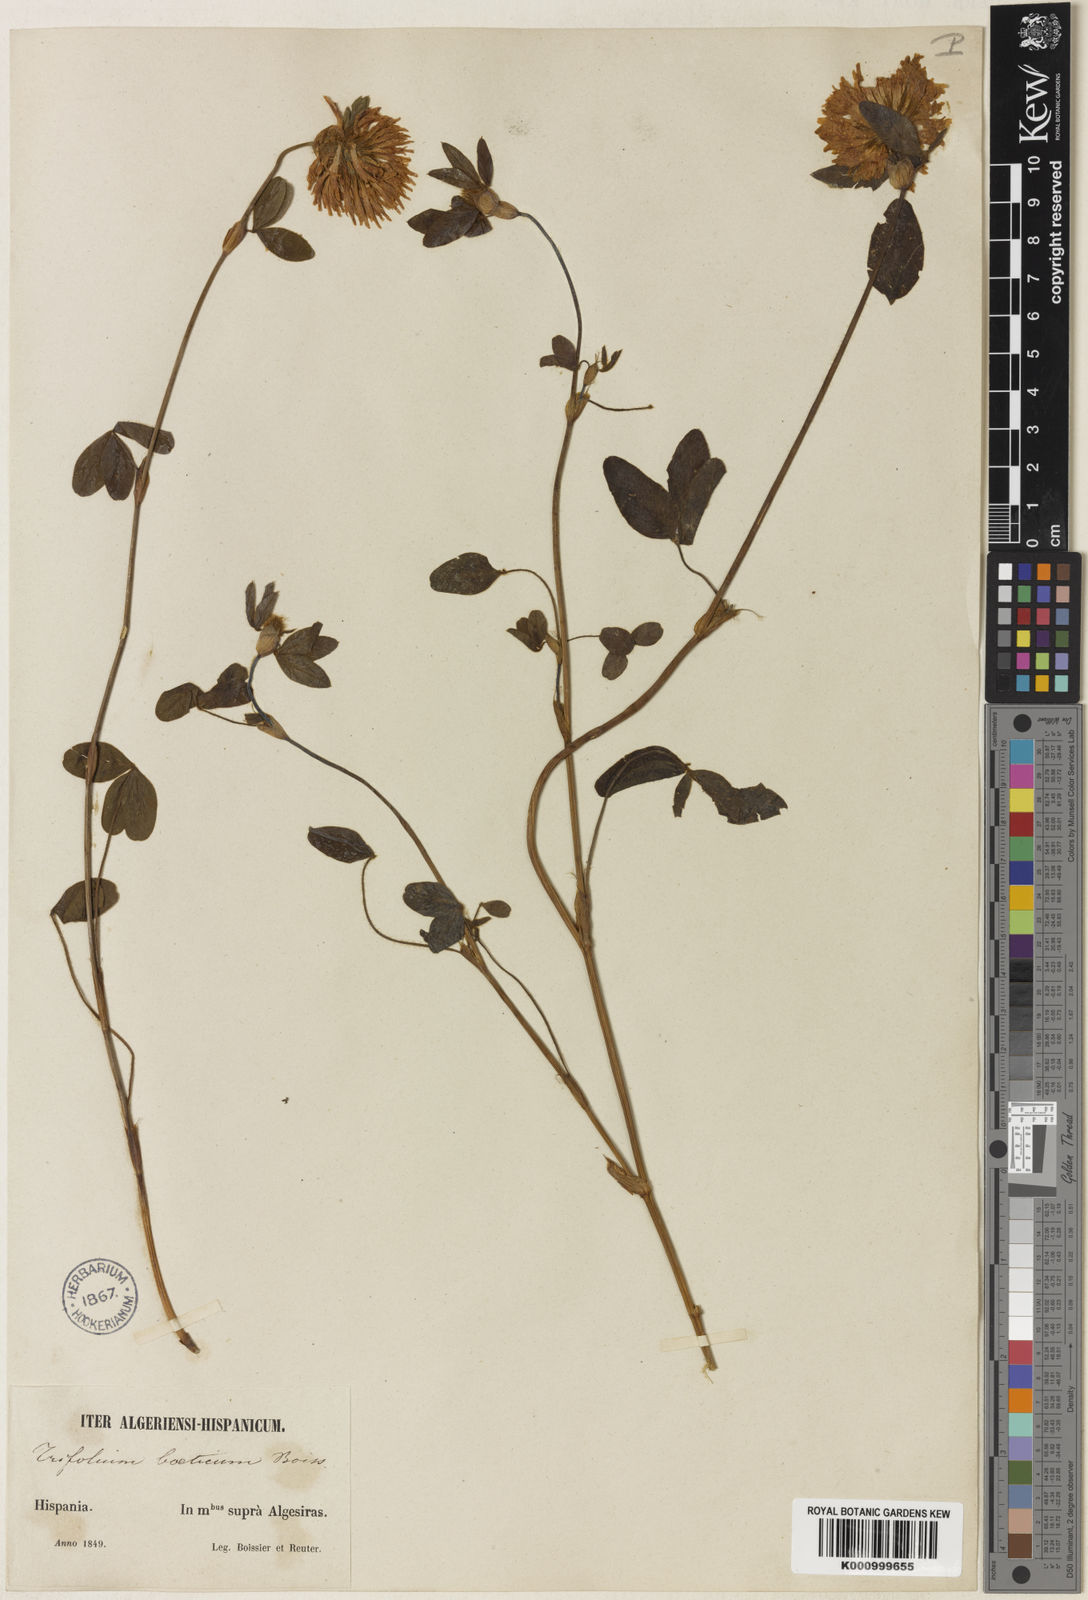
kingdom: Plantae
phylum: Tracheophyta
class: Magnoliopsida
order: Fabales
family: Fabaceae
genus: Trifolium
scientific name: Trifolium
